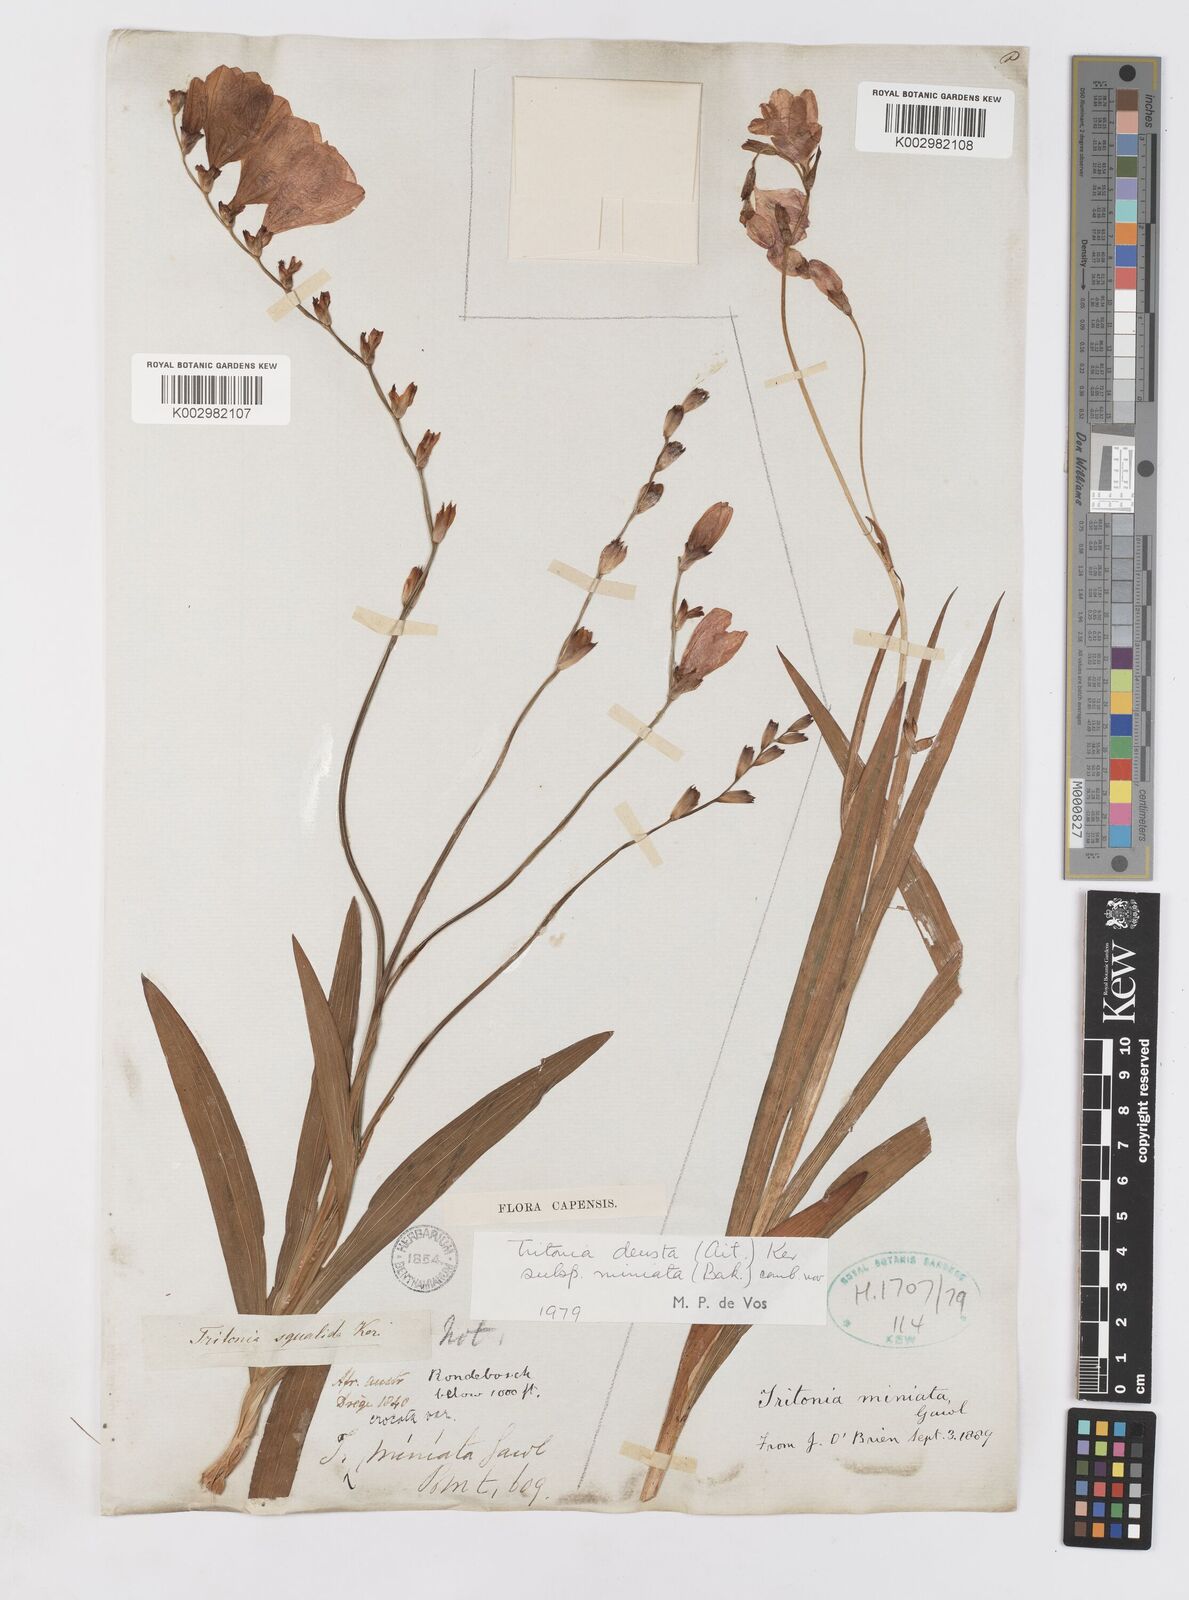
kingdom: Plantae
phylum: Tracheophyta
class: Liliopsida
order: Asparagales
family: Iridaceae
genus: Tritonia
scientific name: Tritonia deusta
